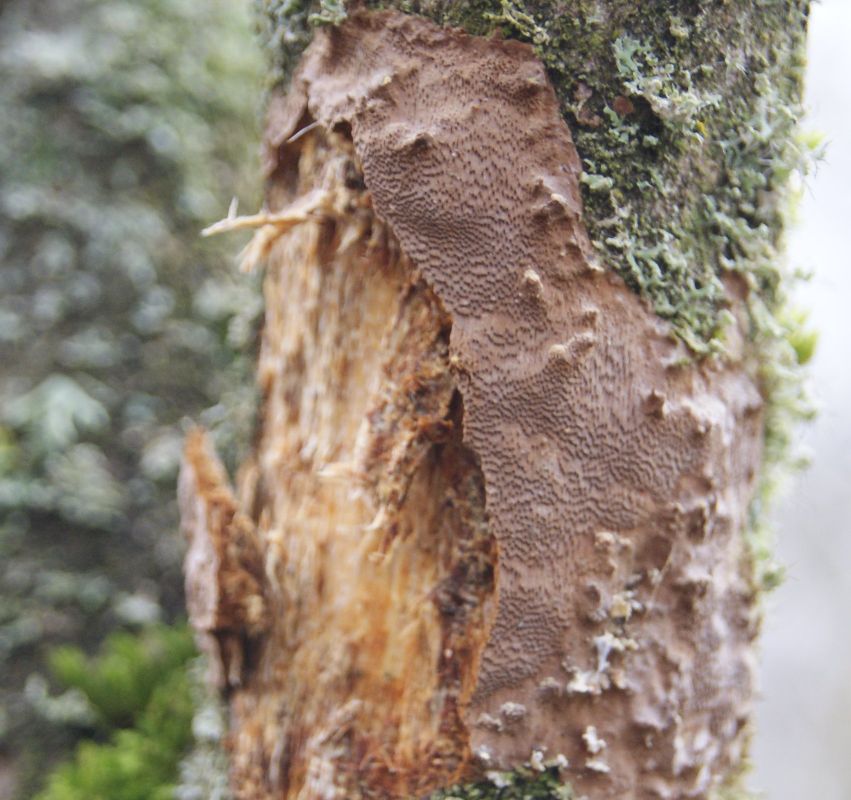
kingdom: Fungi
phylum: Basidiomycota
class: Agaricomycetes
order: Hymenochaetales
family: Hymenochaetaceae
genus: Fomitiporia
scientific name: Fomitiporia punctata
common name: pude-ildporesvamp
